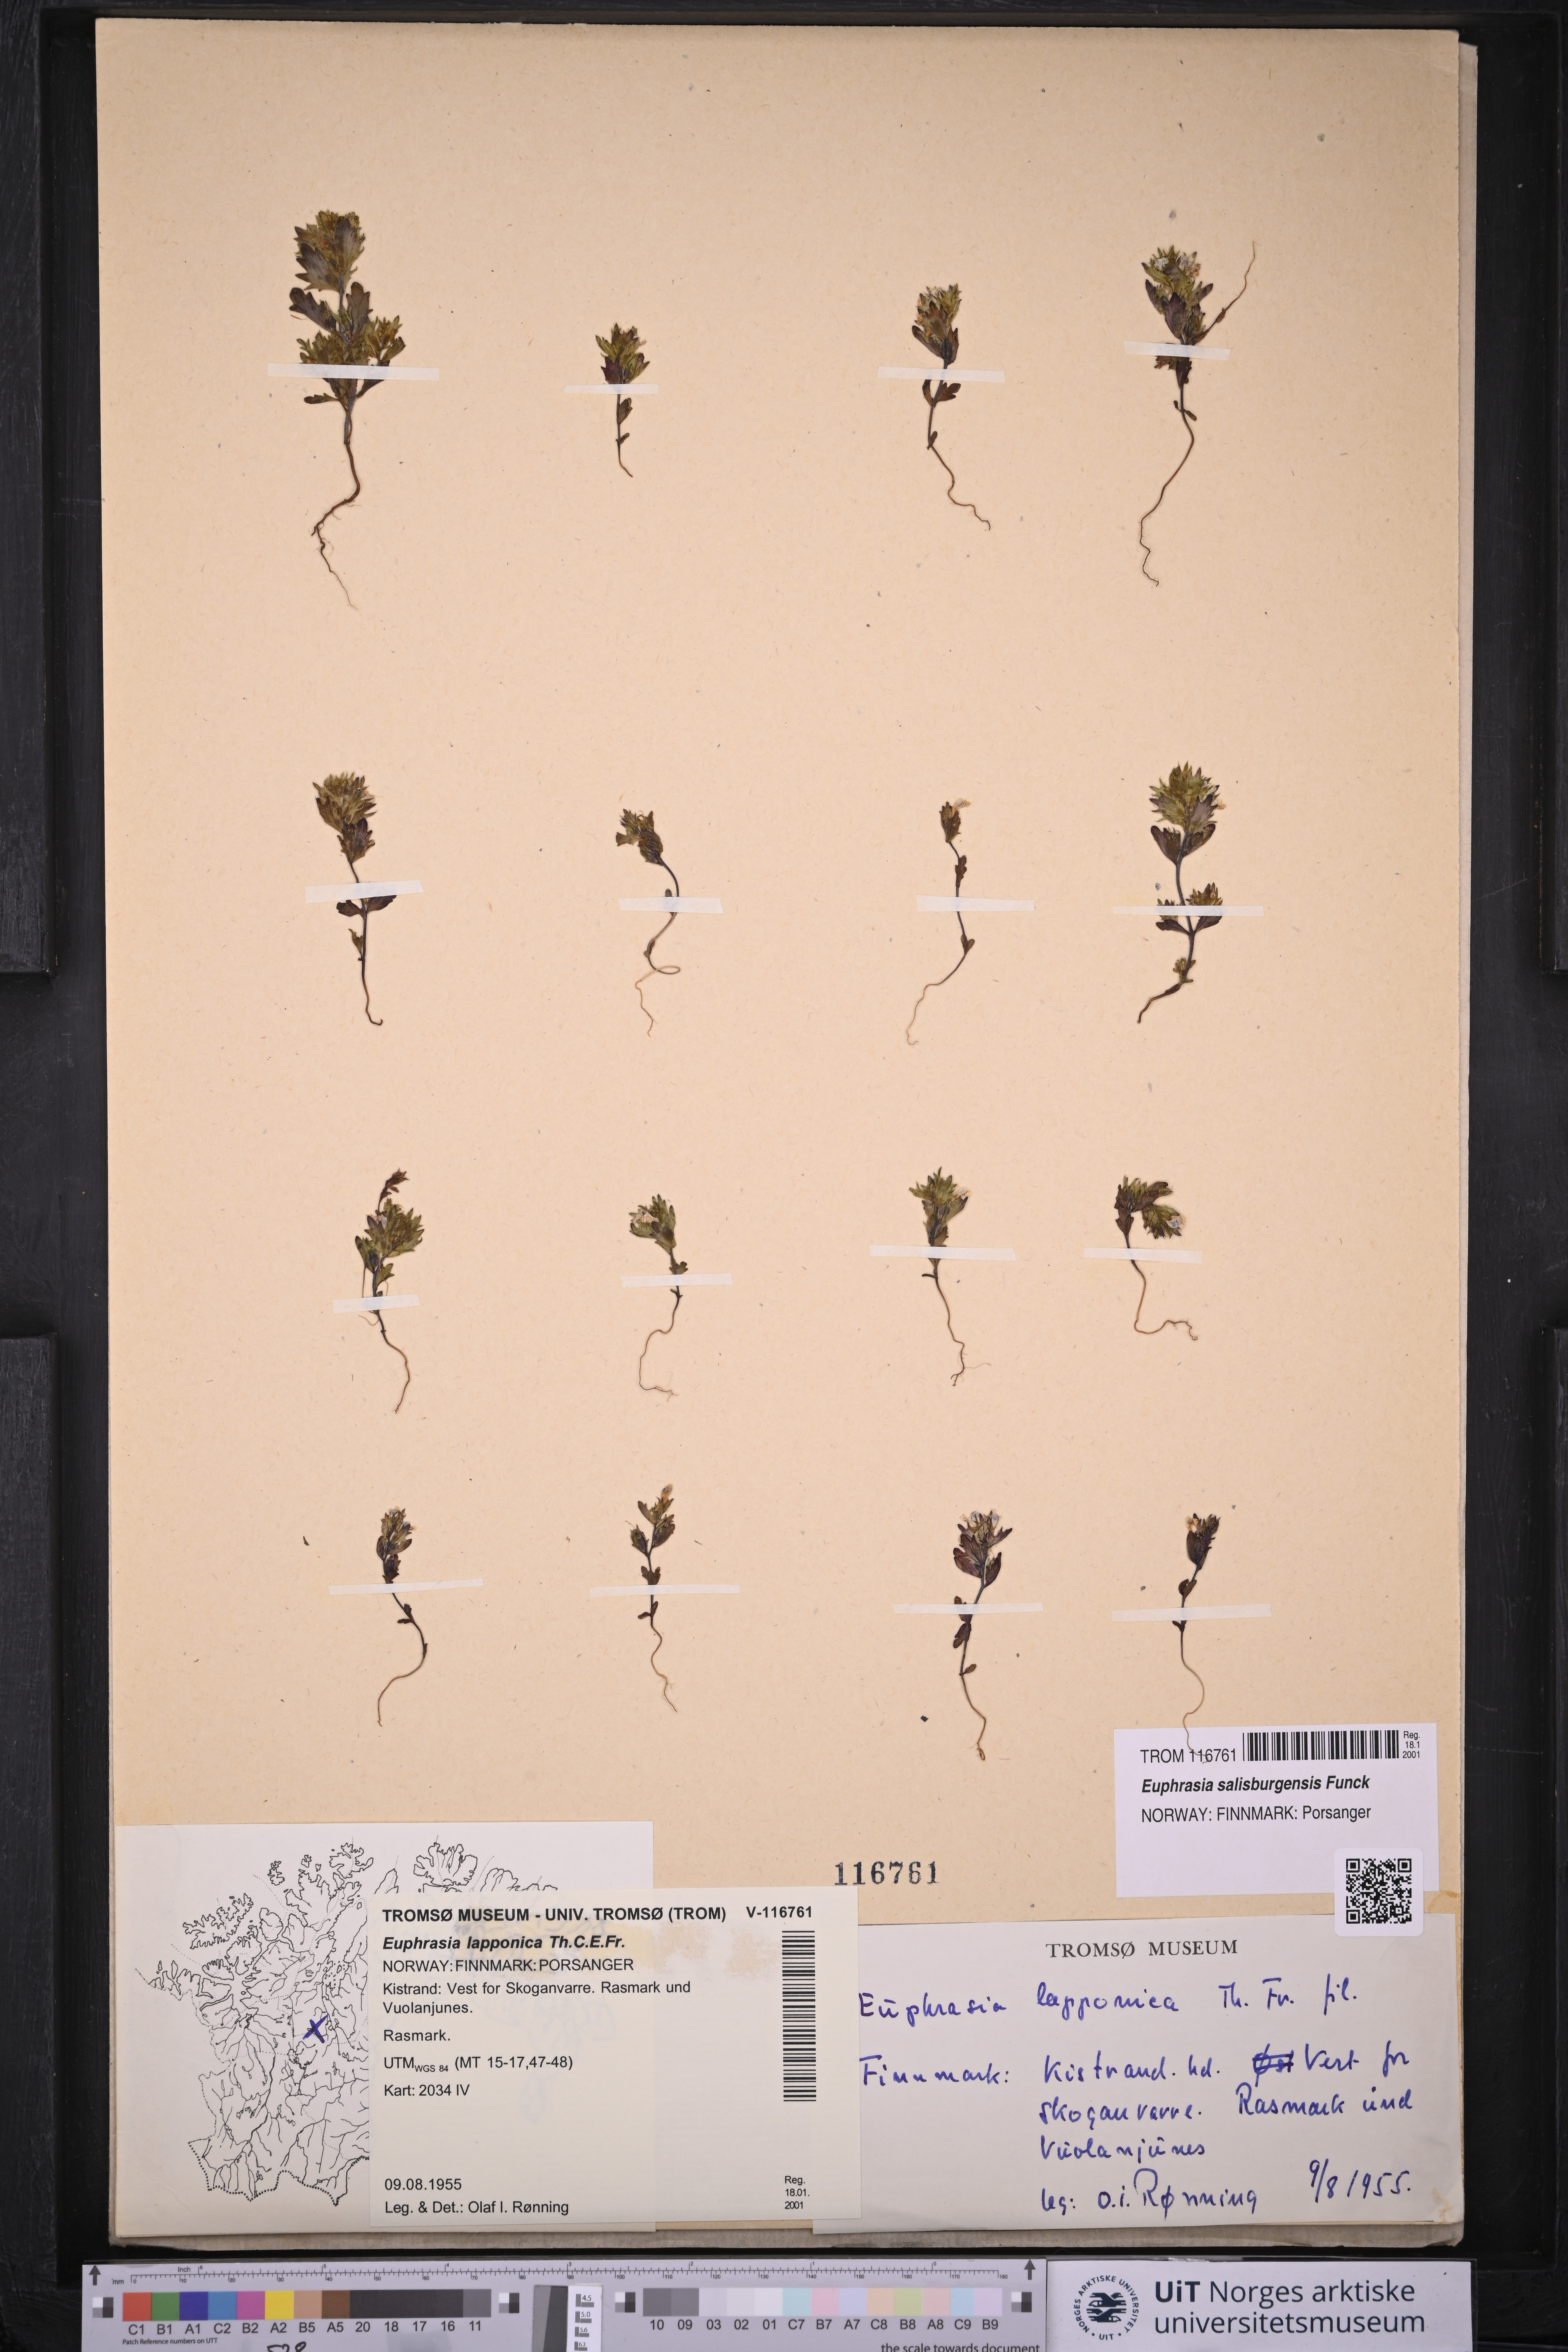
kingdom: Plantae
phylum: Tracheophyta
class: Magnoliopsida
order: Lamiales
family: Orobanchaceae
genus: Euphrasia
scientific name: Euphrasia salisburgensis
